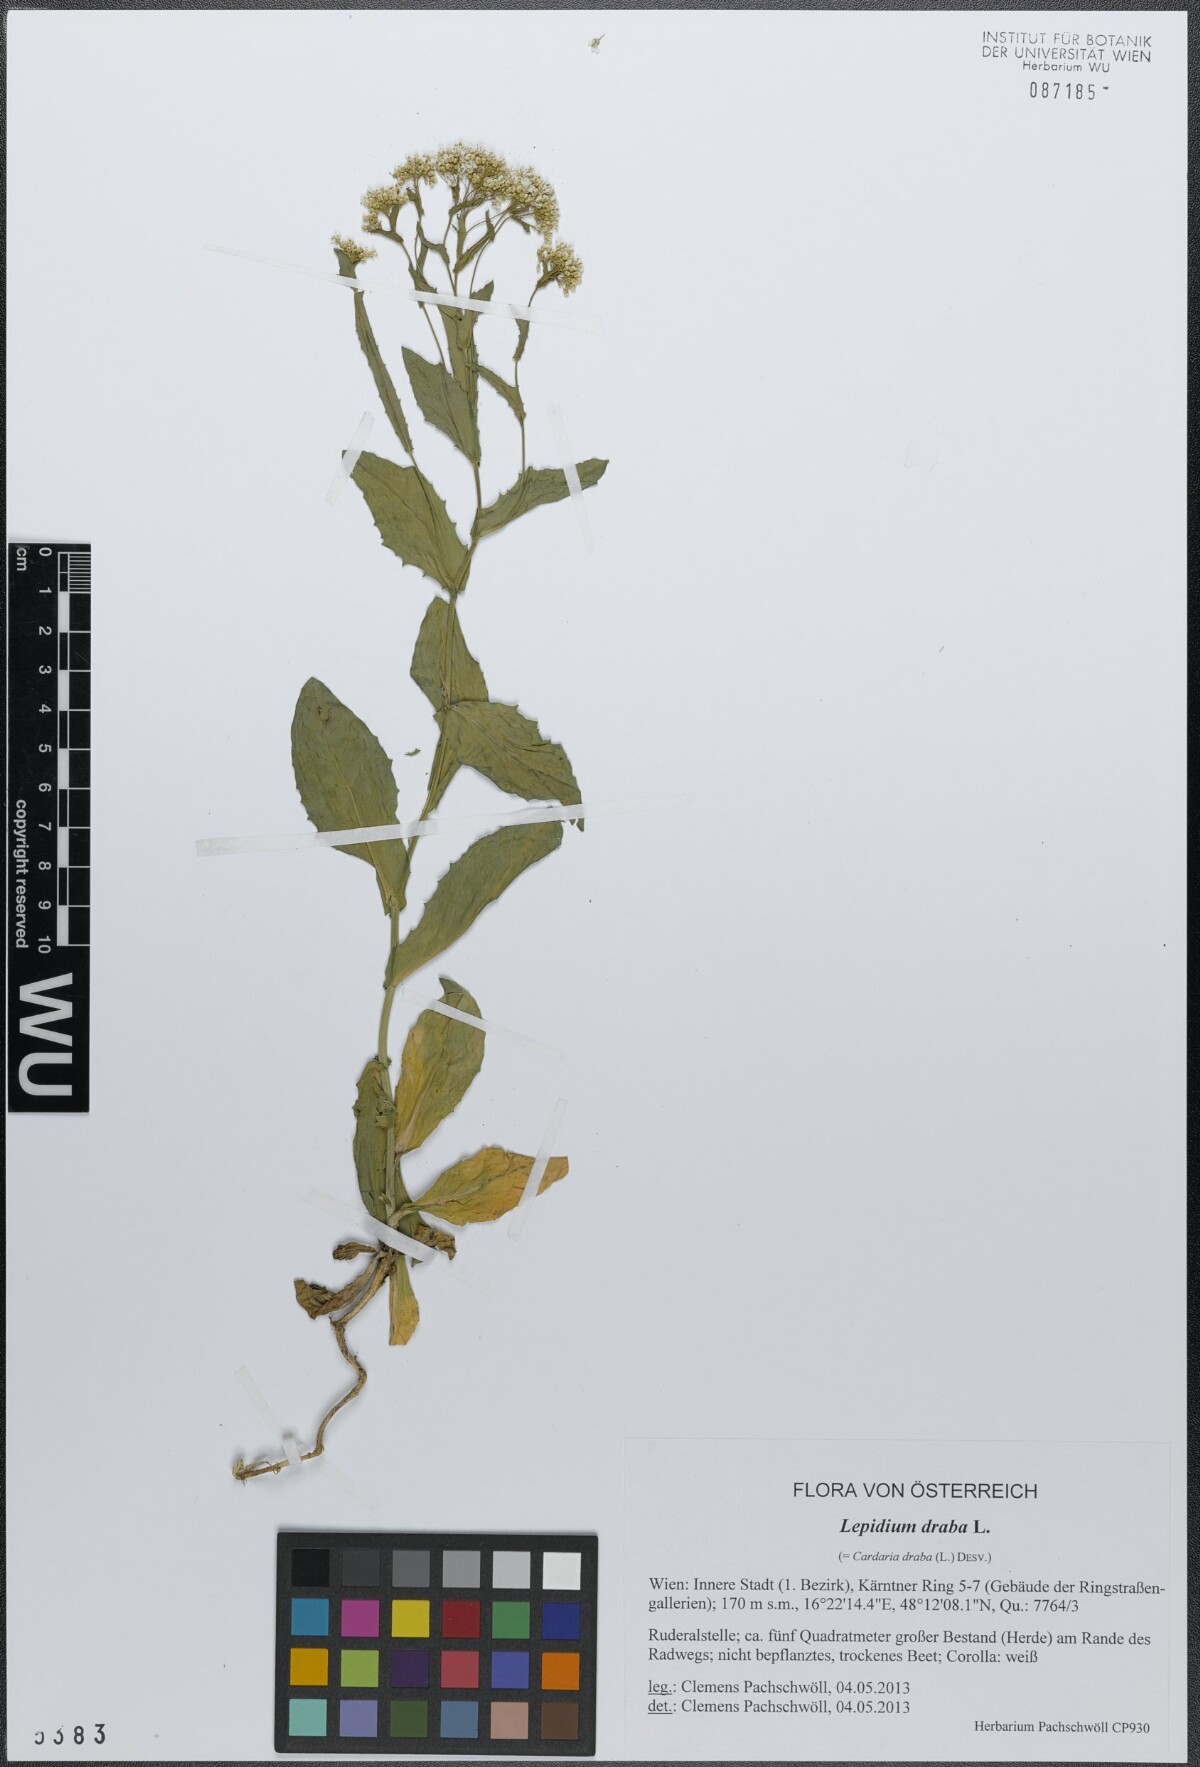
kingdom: Plantae
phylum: Tracheophyta
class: Magnoliopsida
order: Brassicales
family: Brassicaceae
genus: Lepidium
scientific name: Lepidium draba
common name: Hoary cress
